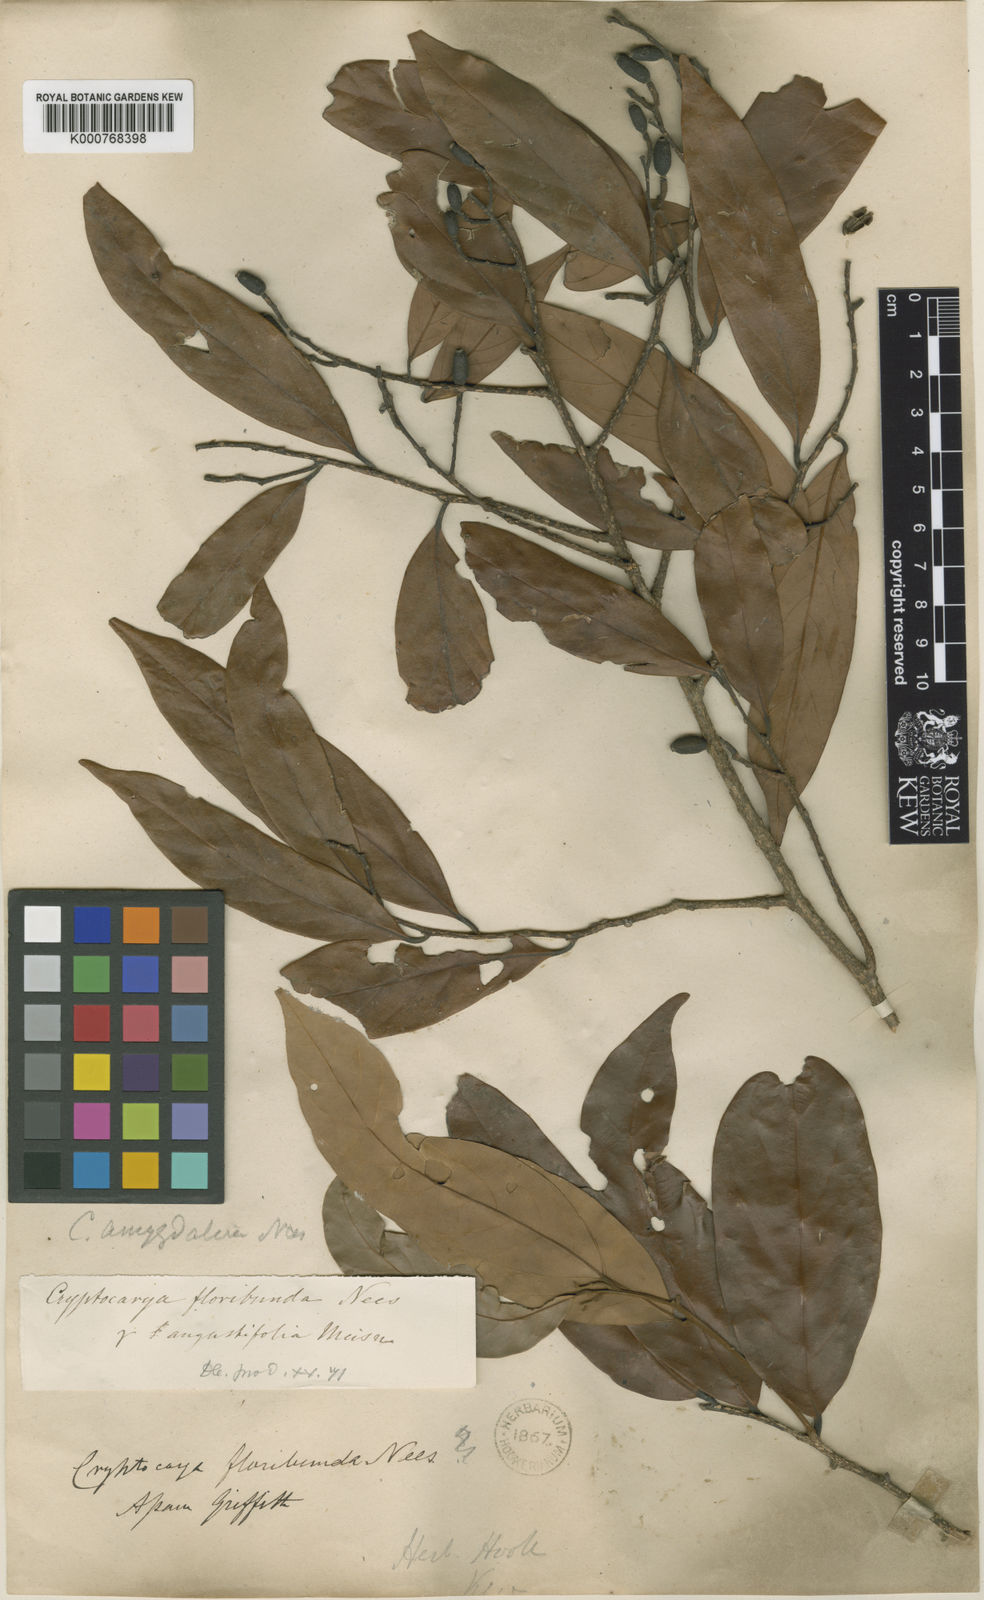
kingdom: Plantae
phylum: Tracheophyta
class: Magnoliopsida
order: Laurales
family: Lauraceae
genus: Cryptocarya
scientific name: Cryptocarya amygdalina
